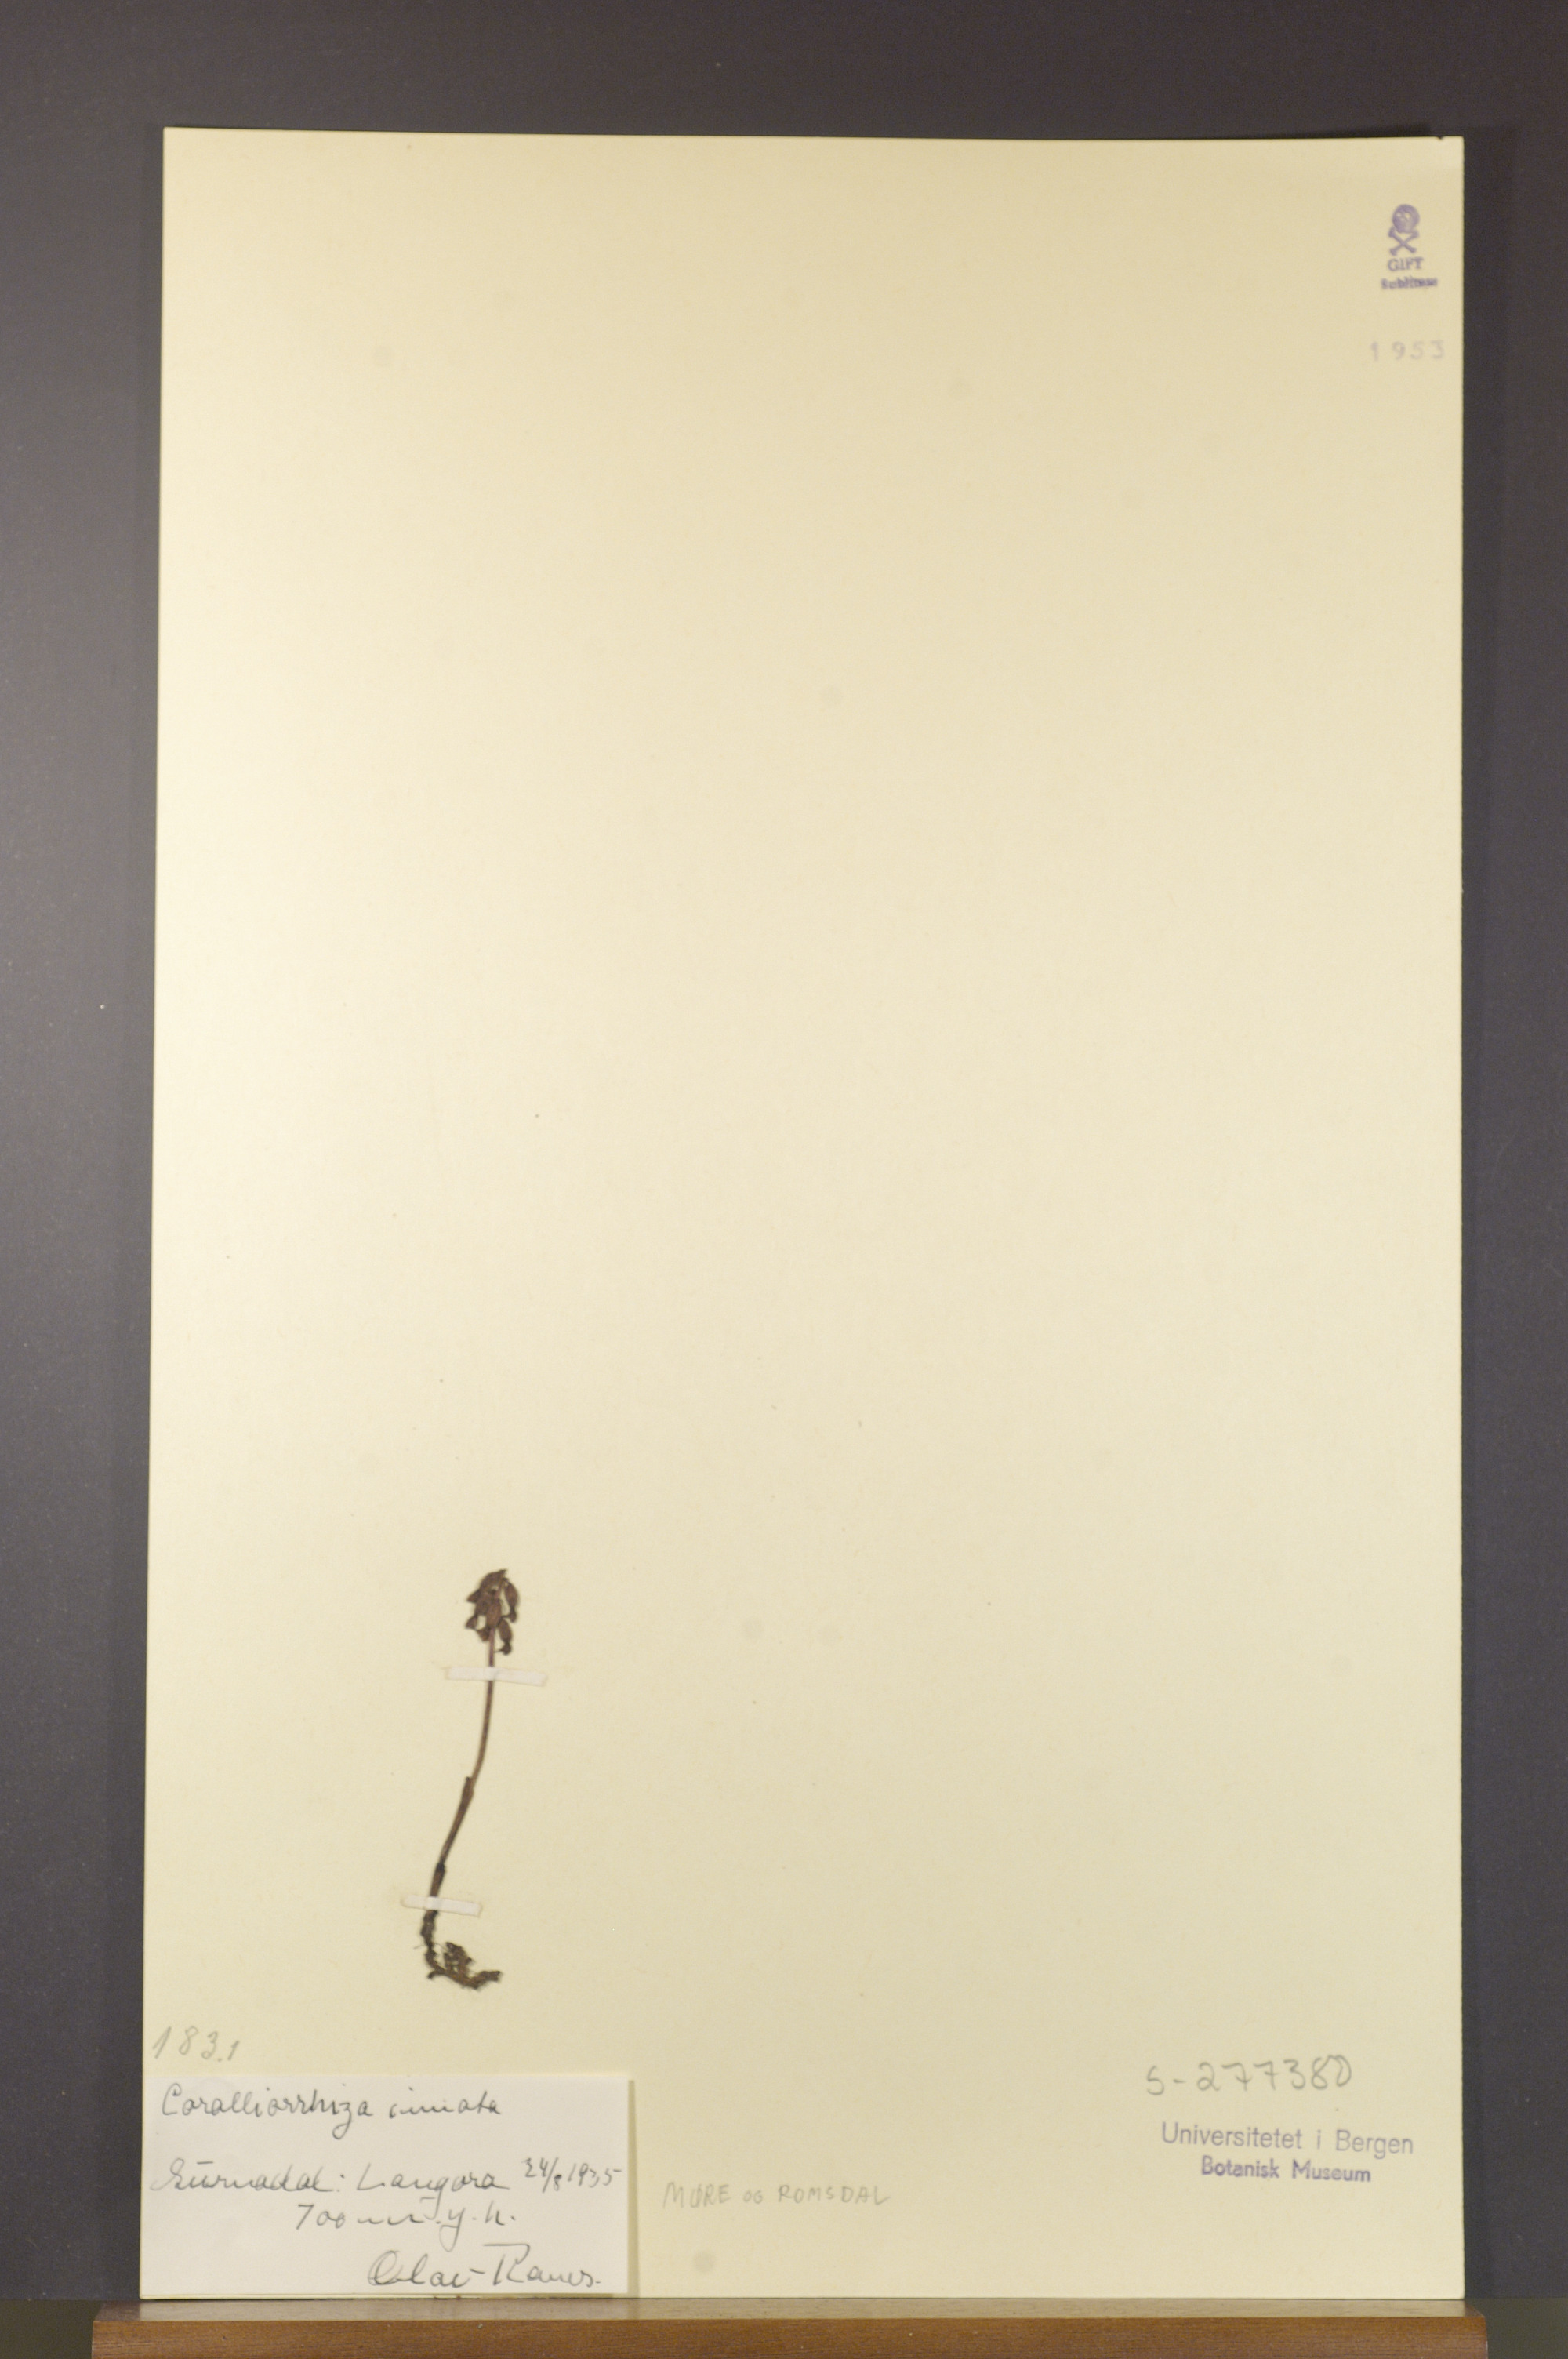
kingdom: Plantae
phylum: Tracheophyta
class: Liliopsida
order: Asparagales
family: Orchidaceae
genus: Corallorhiza
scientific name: Corallorhiza trifida
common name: Yellow coralroot
